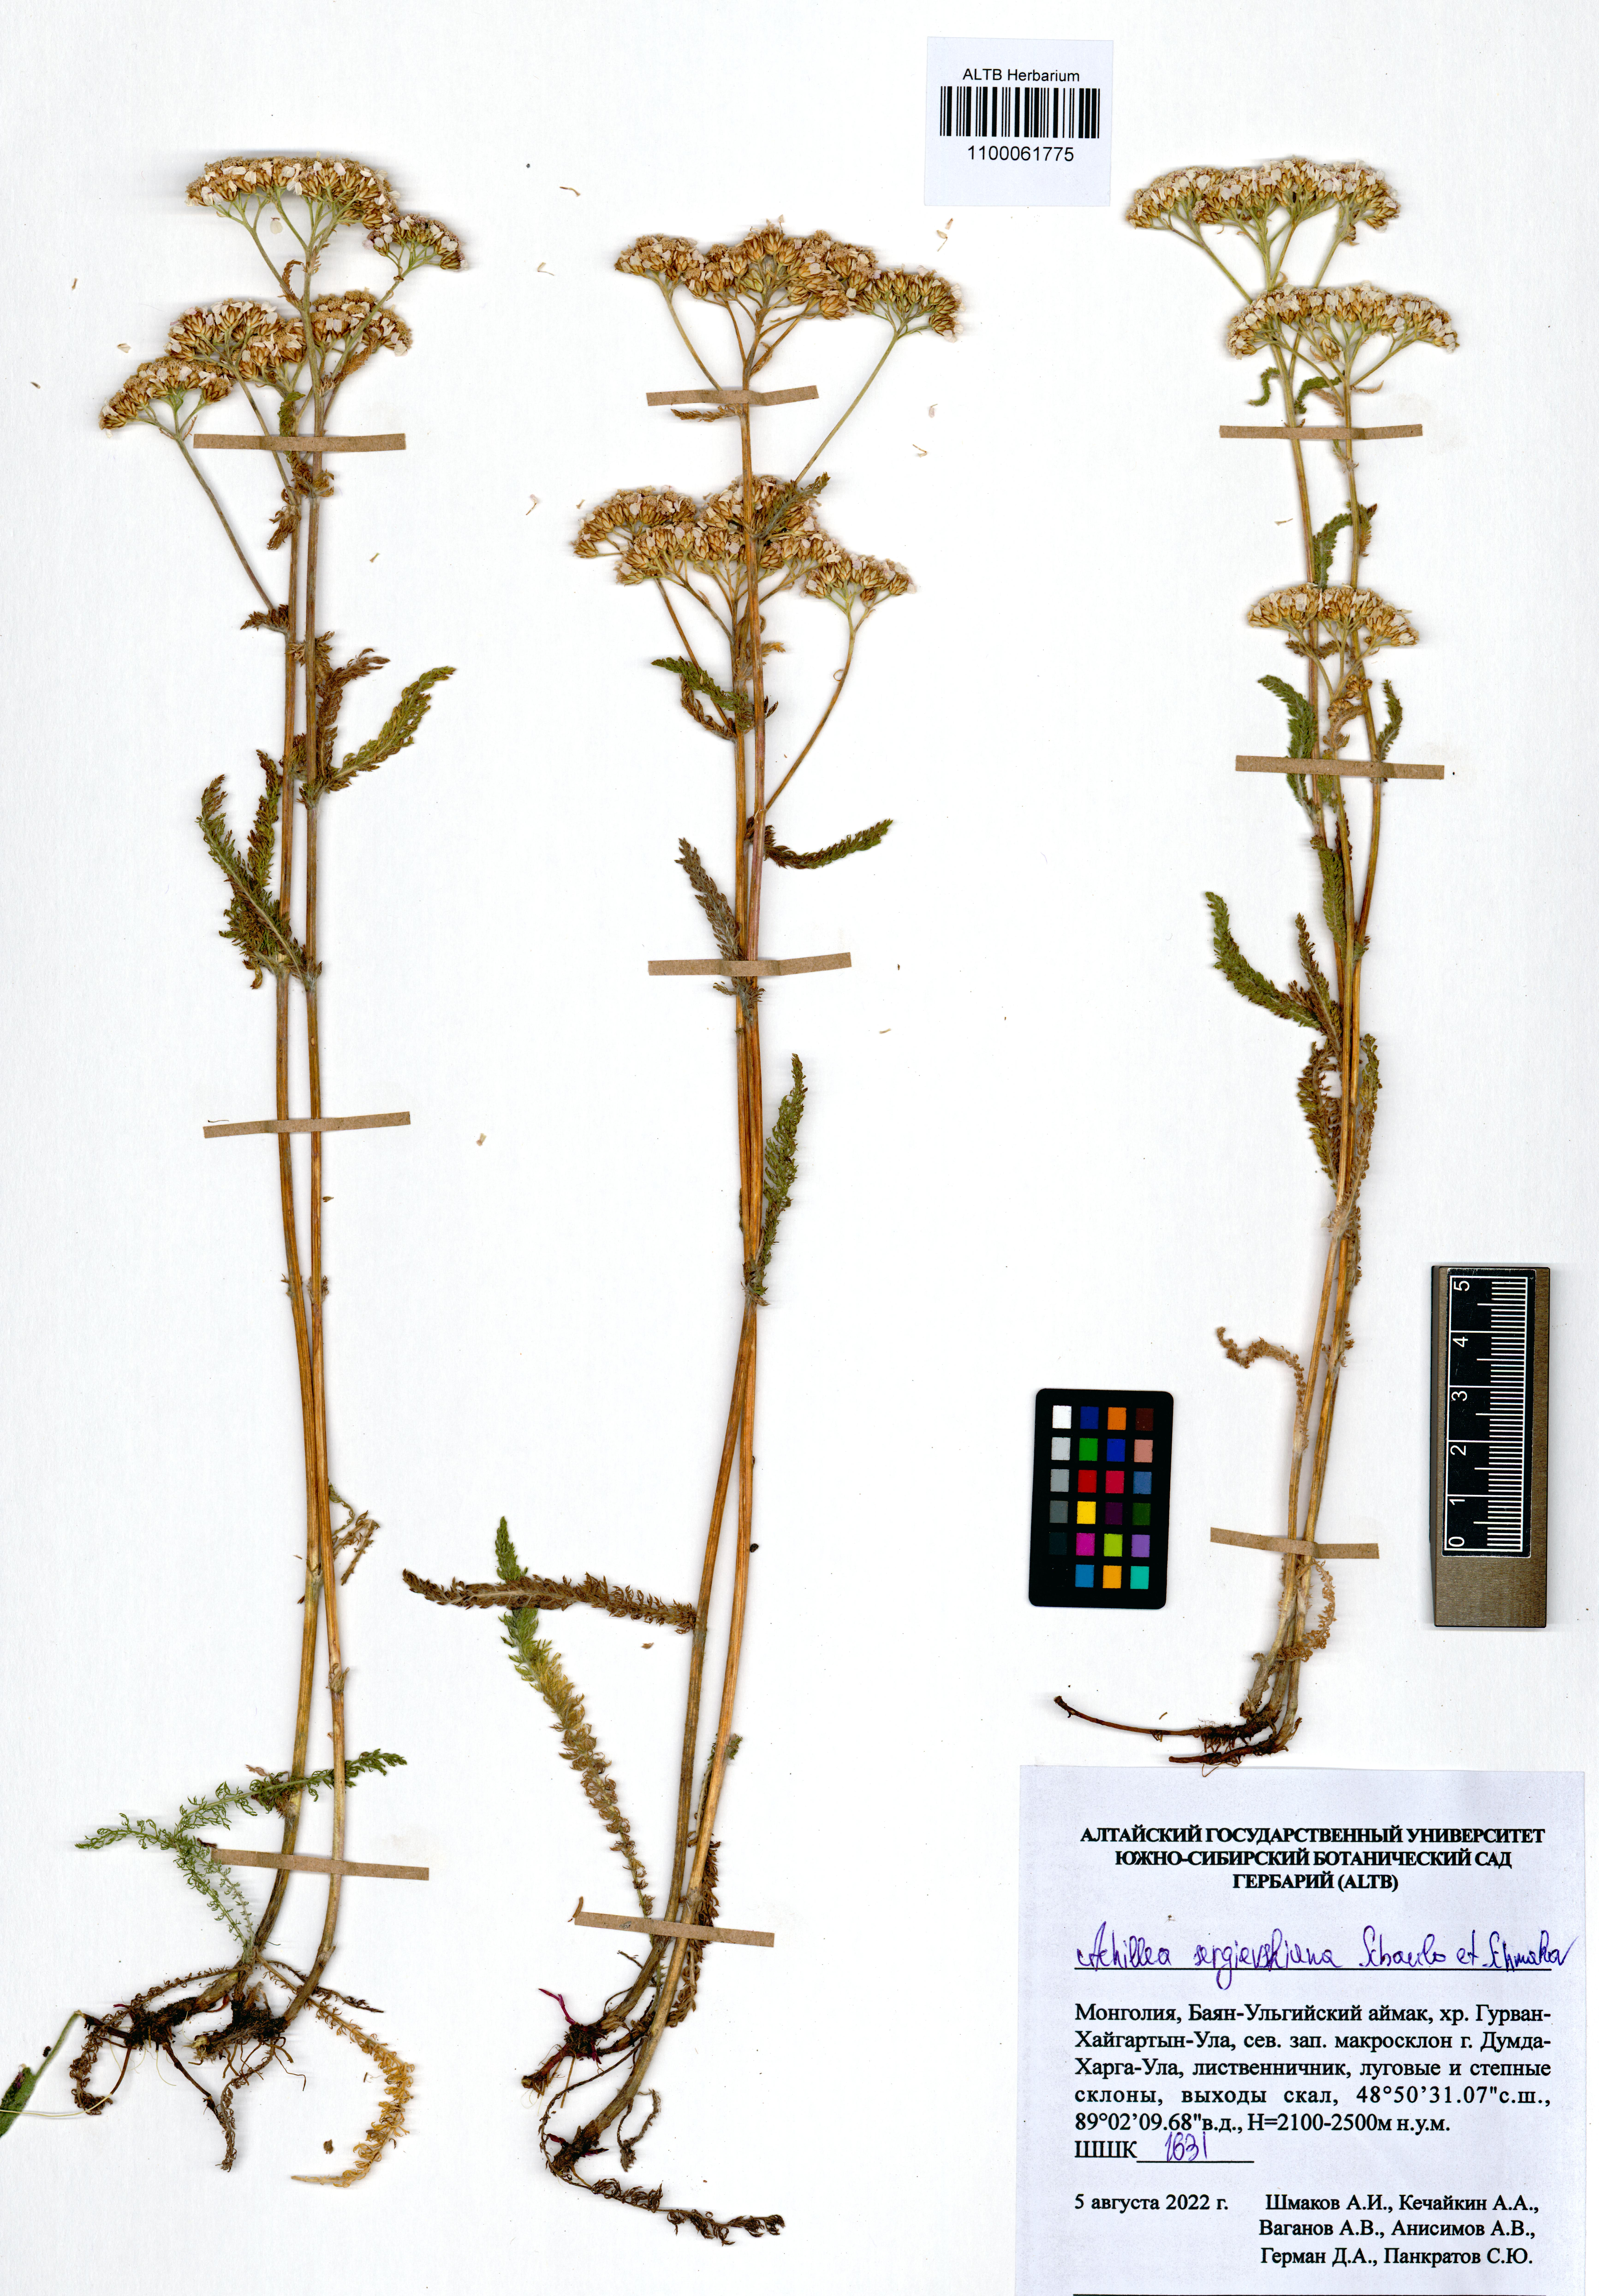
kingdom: Plantae
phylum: Tracheophyta
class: Magnoliopsida
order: Asterales
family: Asteraceae
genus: Achillea
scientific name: Achillea sergievskiana
